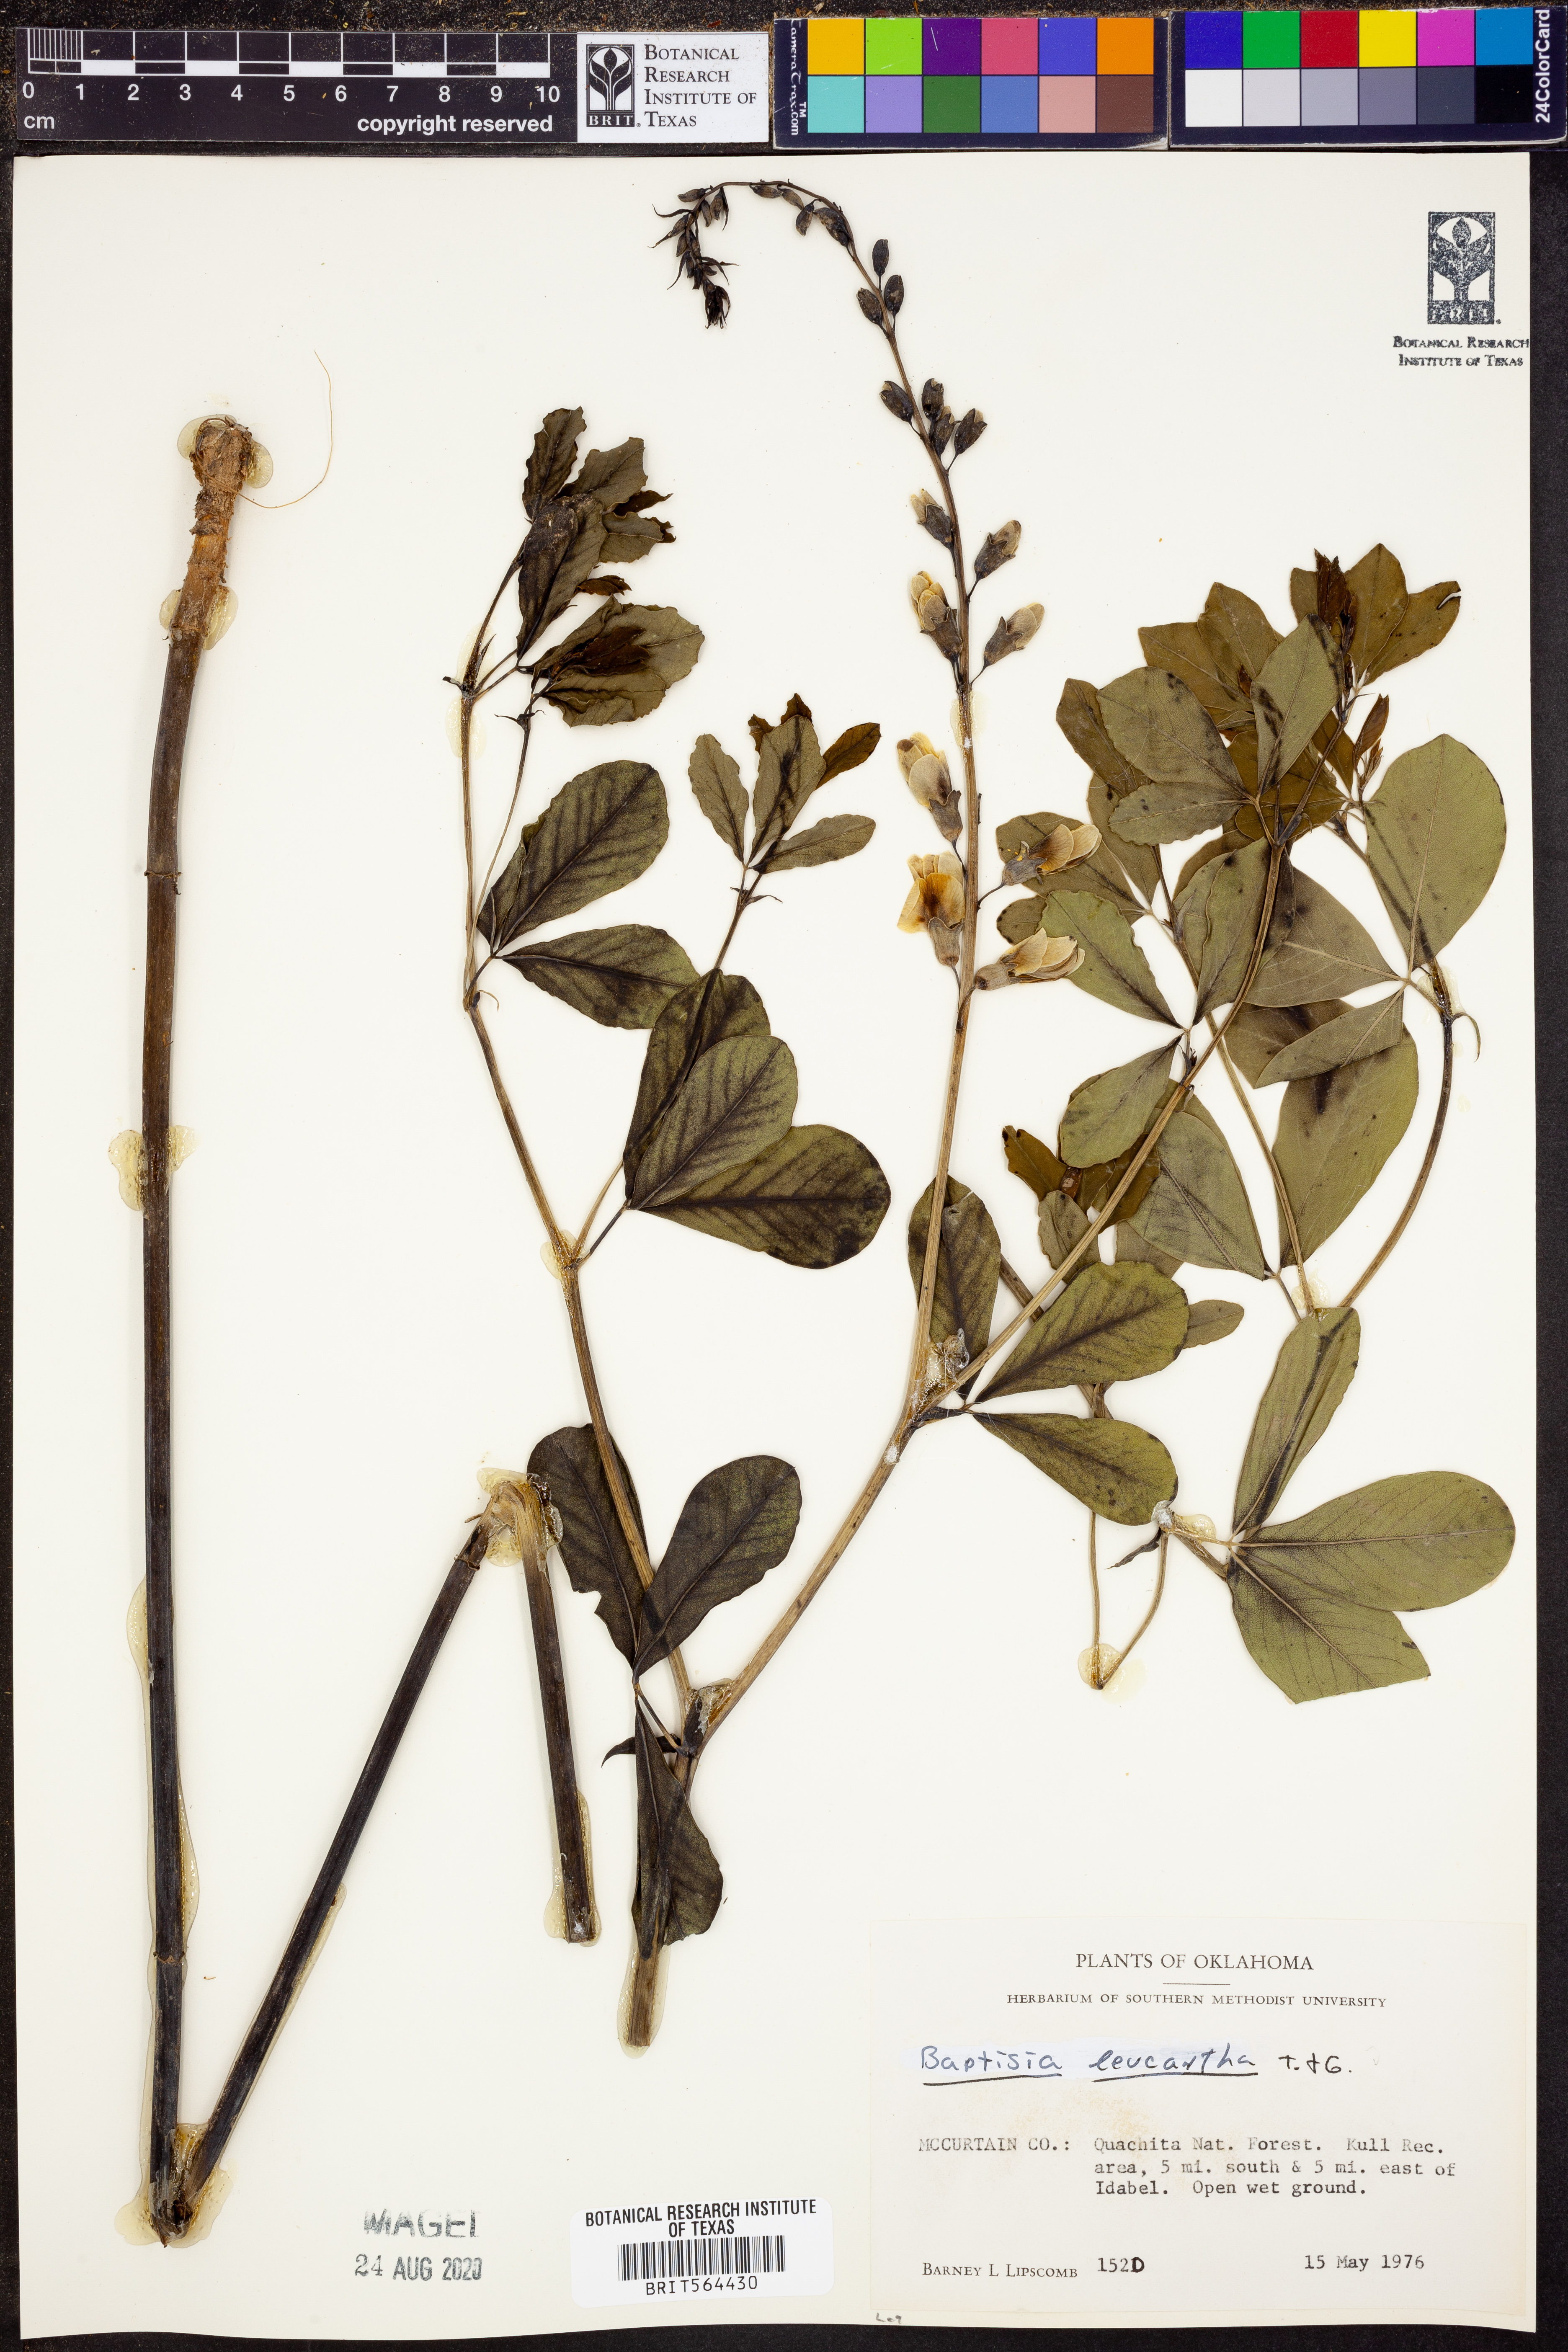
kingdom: Plantae
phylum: Tracheophyta
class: Magnoliopsida
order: Fabales
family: Fabaceae
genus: Baptisia
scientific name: Baptisia alba
